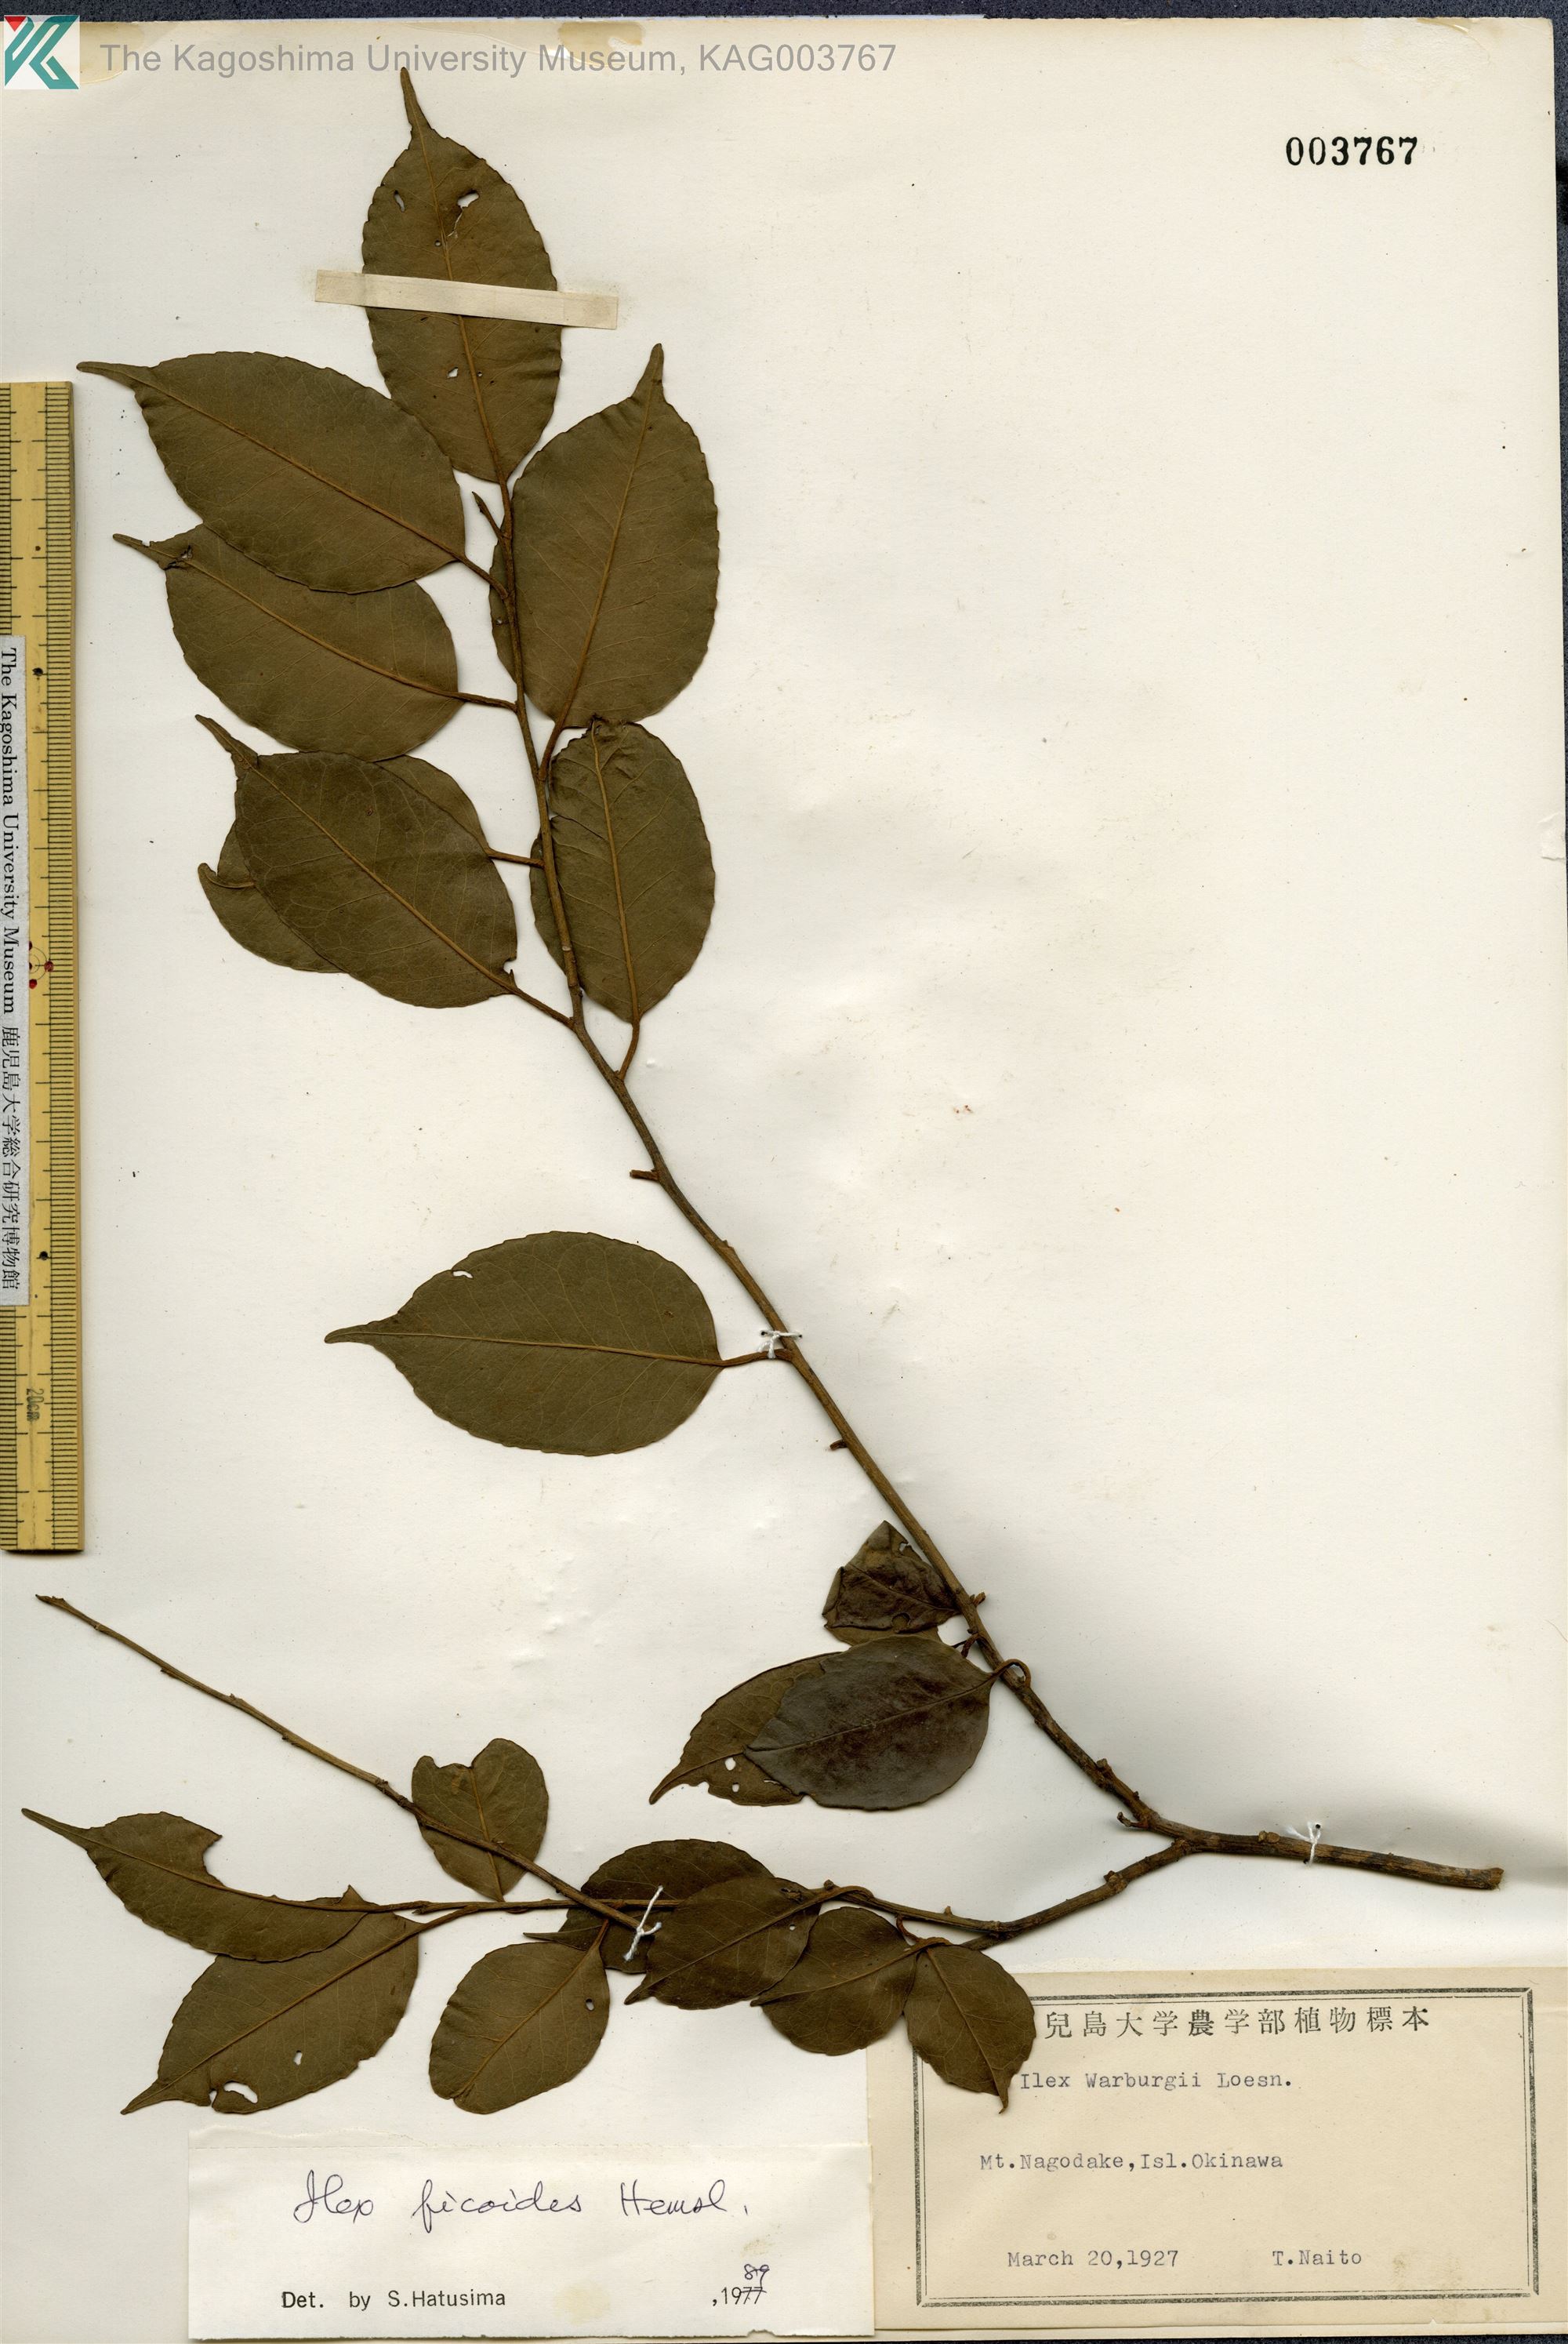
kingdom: Plantae
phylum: Tracheophyta
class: Magnoliopsida
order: Aquifoliales
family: Aquifoliaceae
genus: Ilex
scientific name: Ilex warburgii
